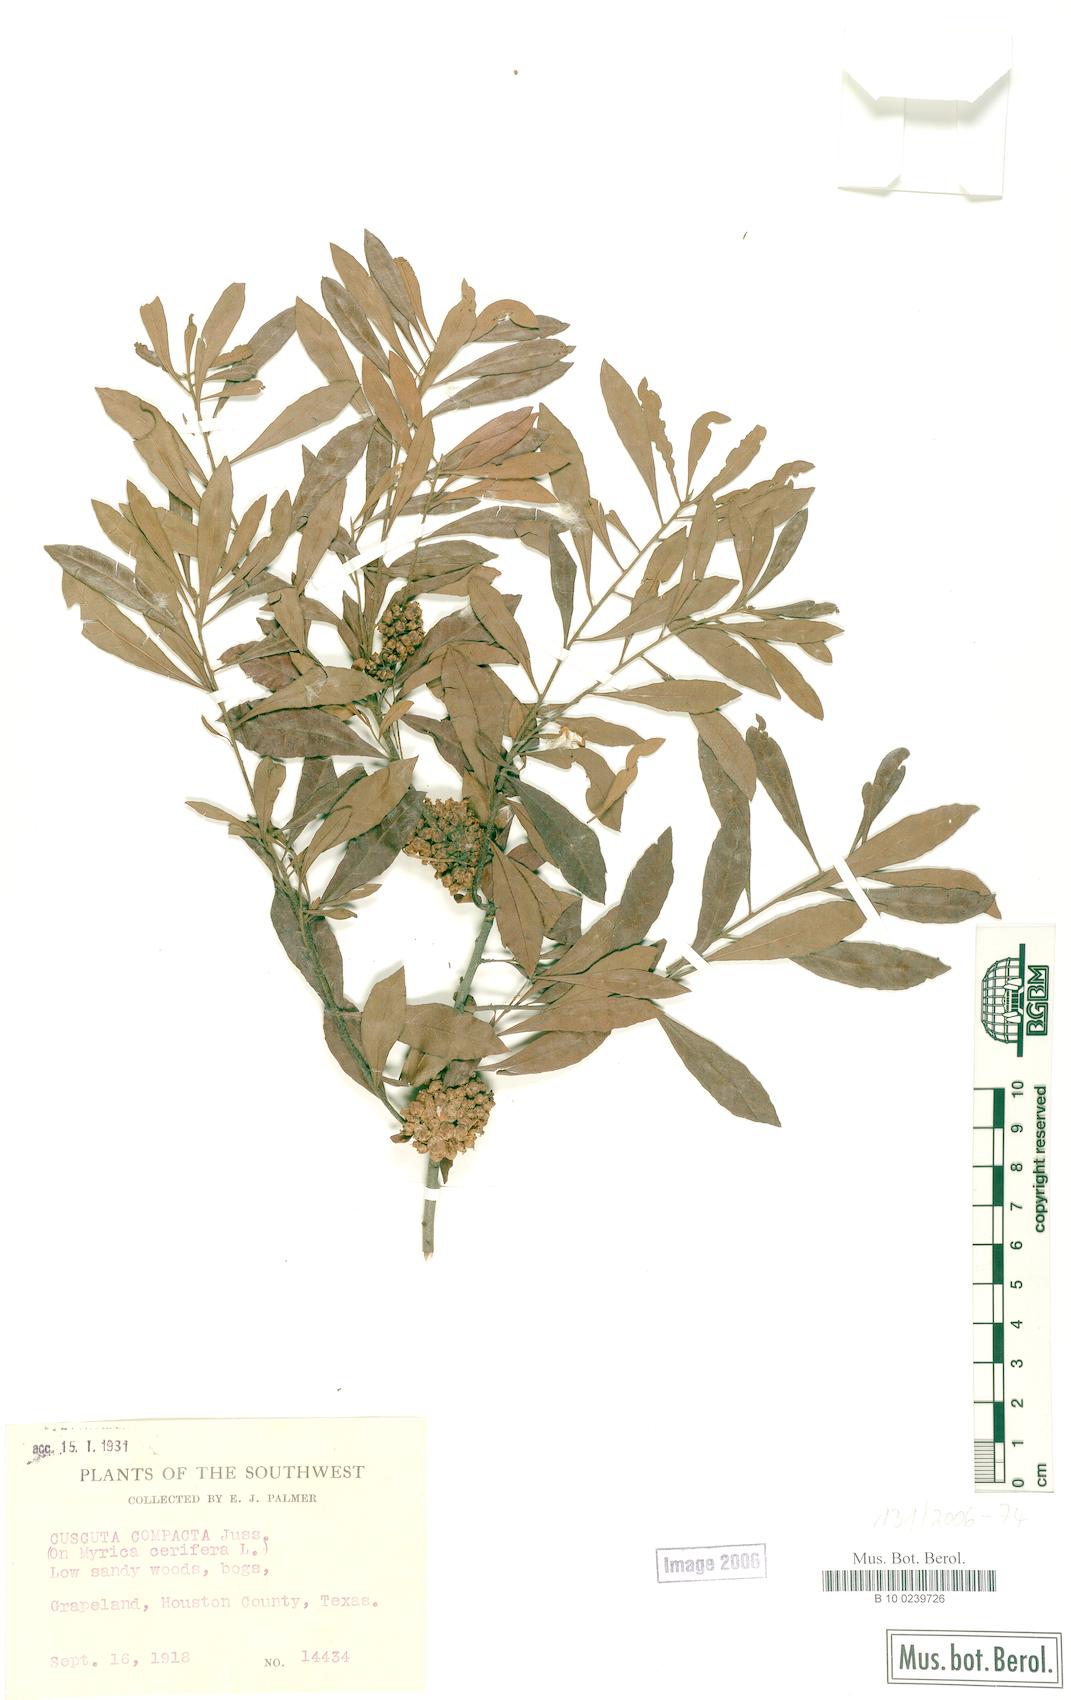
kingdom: Plantae
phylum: Tracheophyta
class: Magnoliopsida
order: Solanales
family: Convolvulaceae
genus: Cuscuta
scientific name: Cuscuta compacta
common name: Compact dodder
